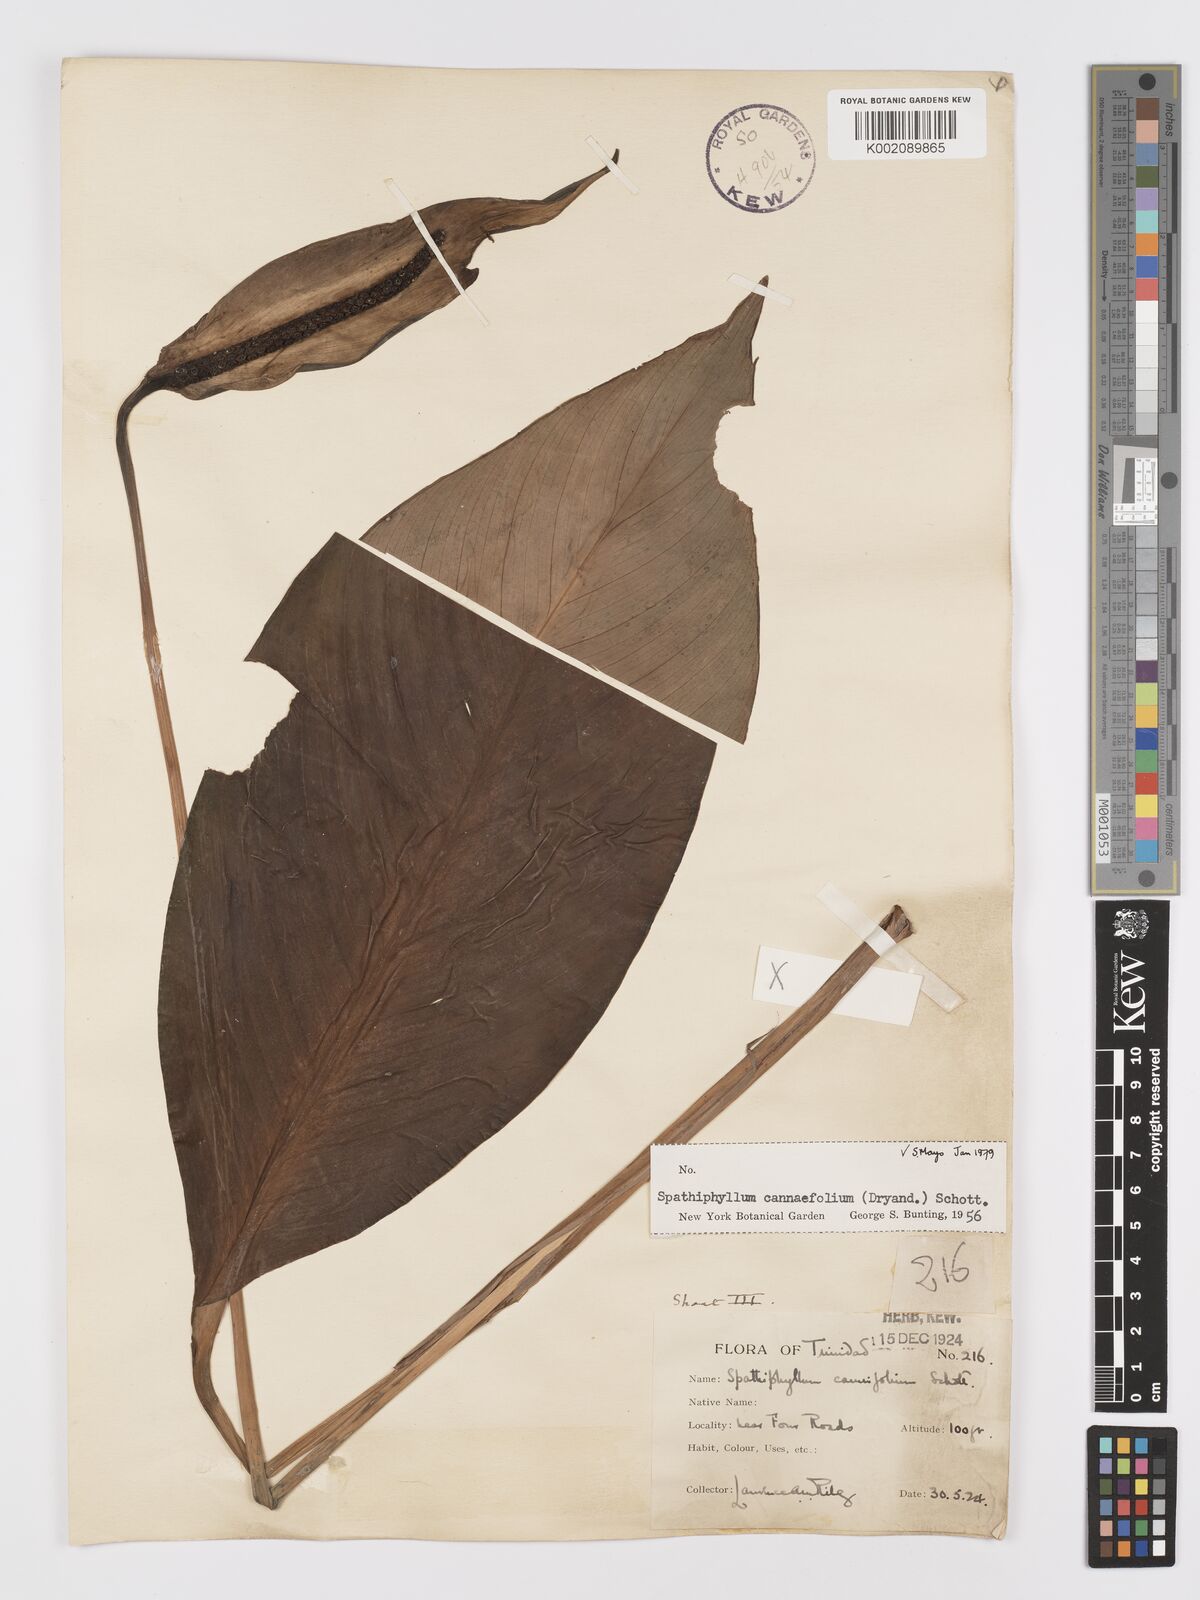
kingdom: Plantae
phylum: Tracheophyta
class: Liliopsida
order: Alismatales
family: Araceae
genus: Spathiphyllum
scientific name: Spathiphyllum cannifolium
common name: Spatheflower
